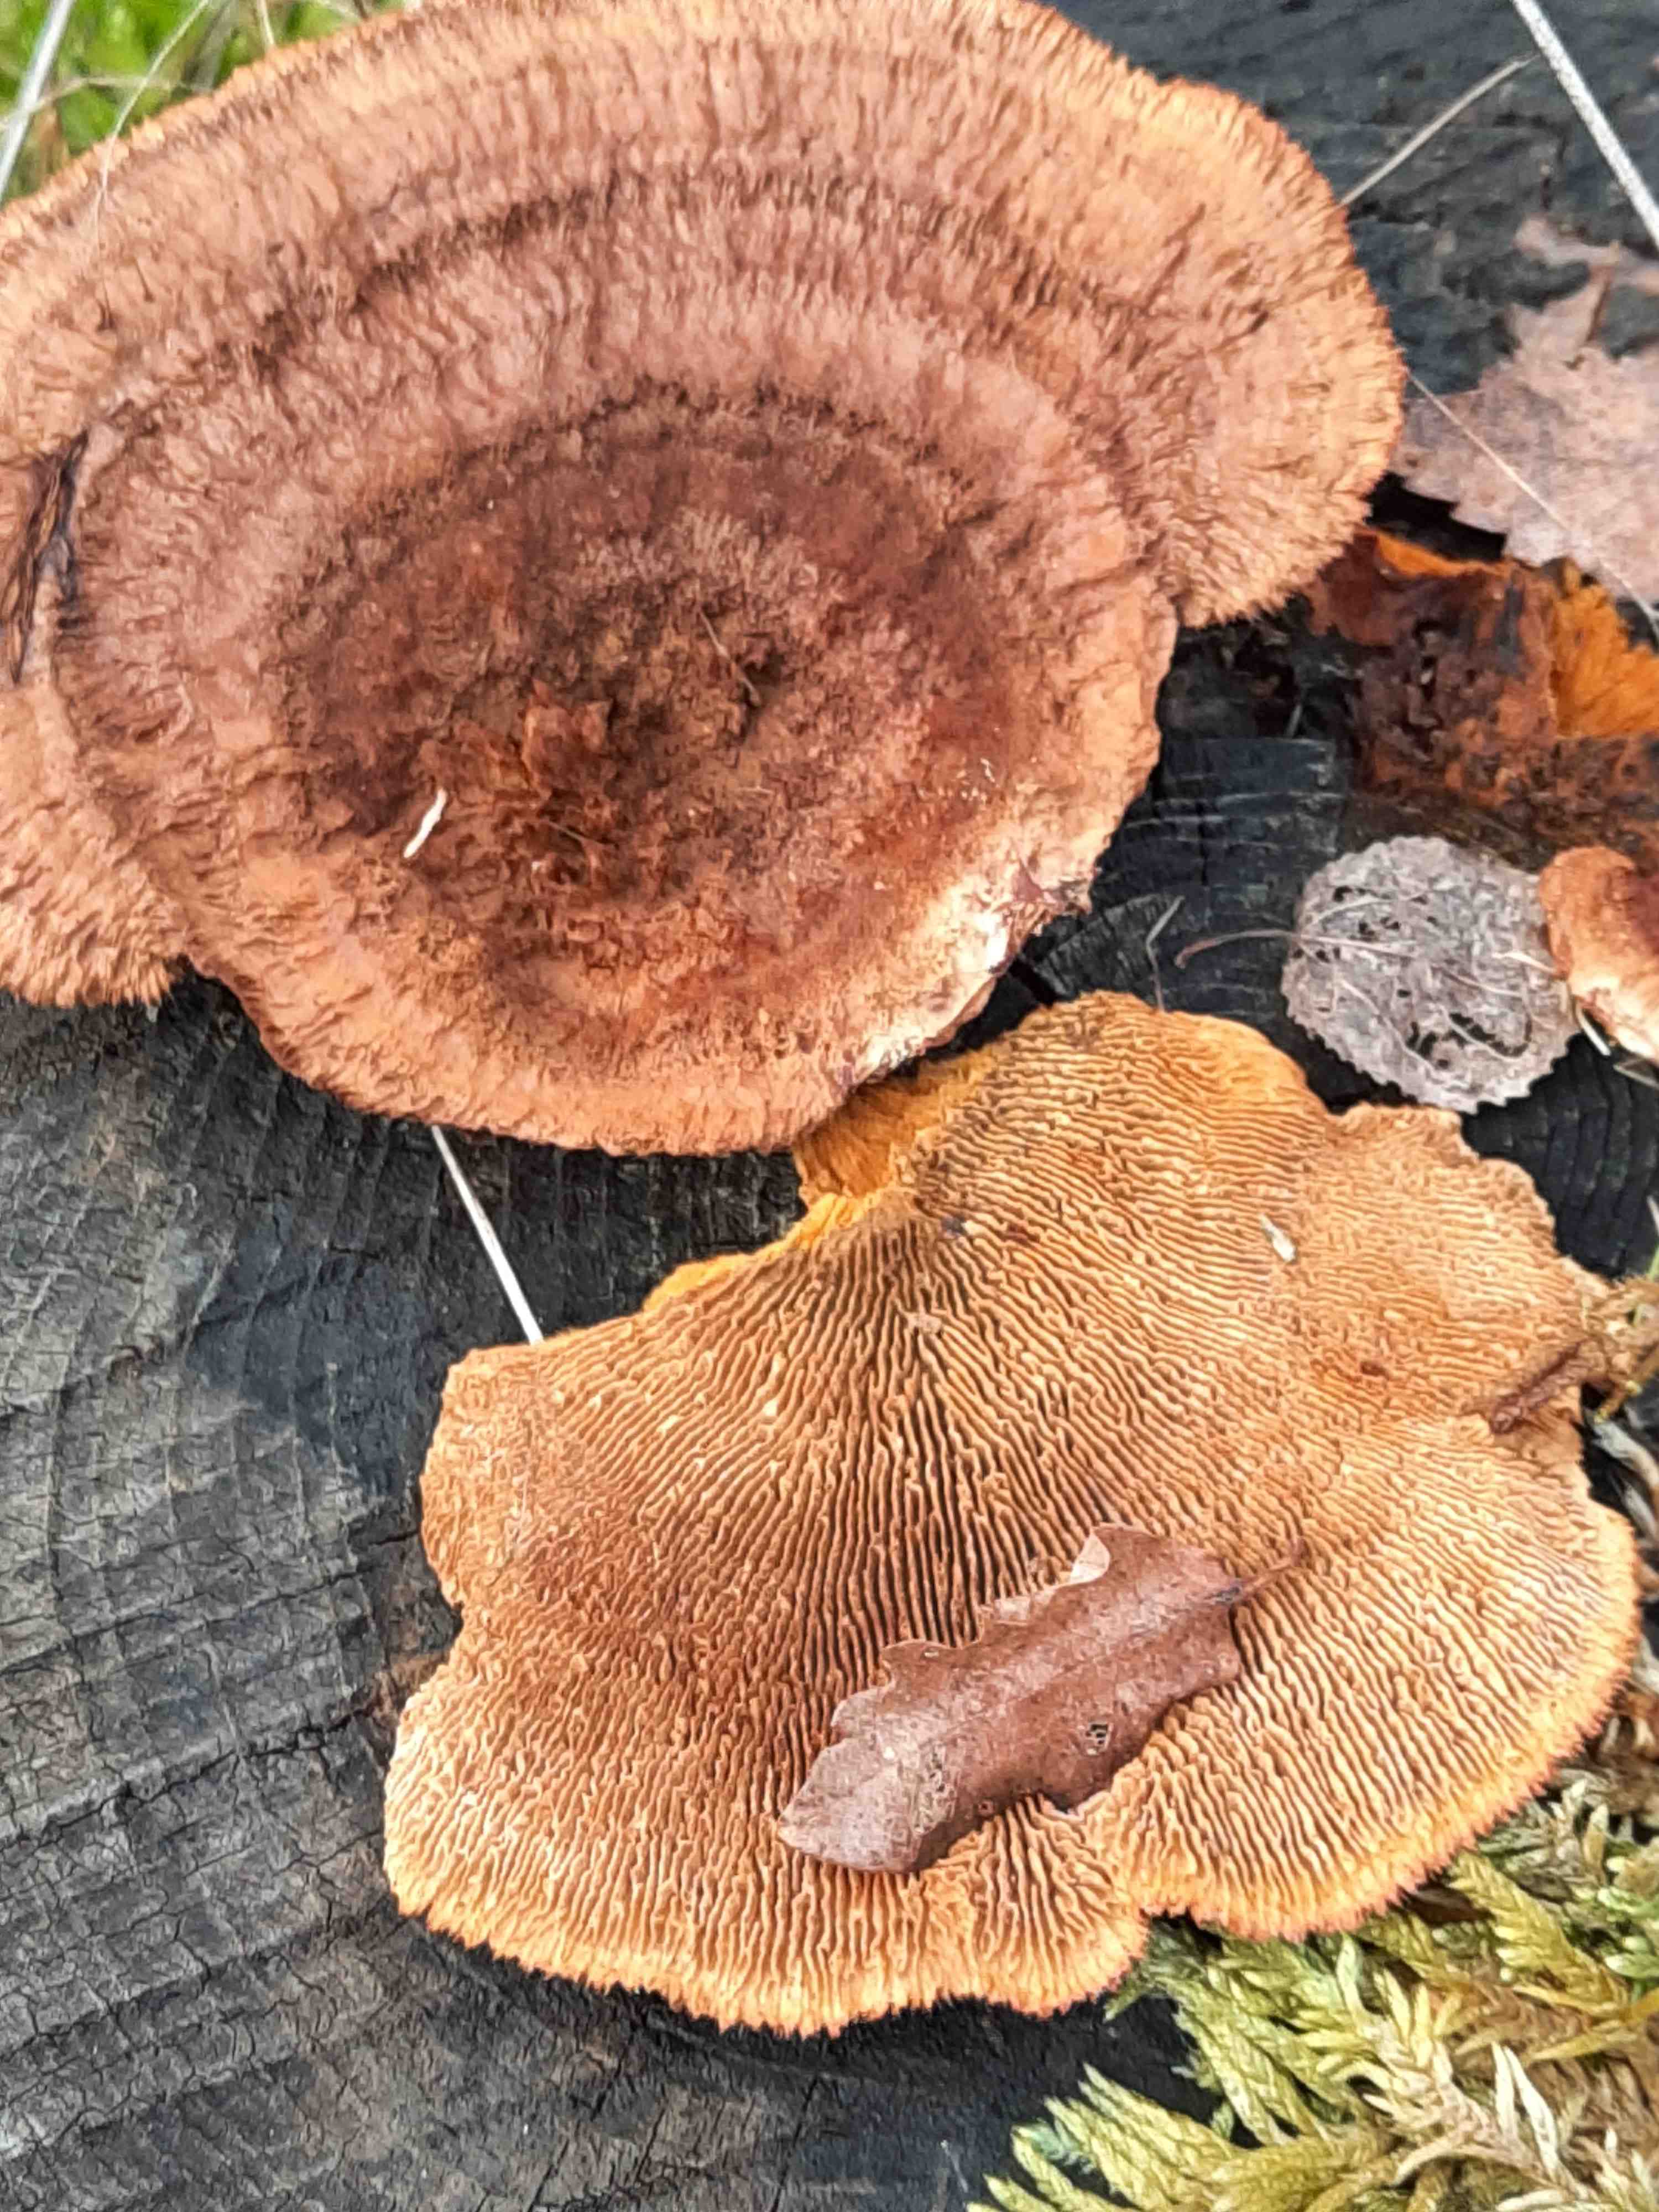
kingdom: Fungi
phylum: Basidiomycota
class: Agaricomycetes
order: Gloeophyllales
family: Gloeophyllaceae
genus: Gloeophyllum
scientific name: Gloeophyllum sepiarium
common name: fyrre-korkhat
